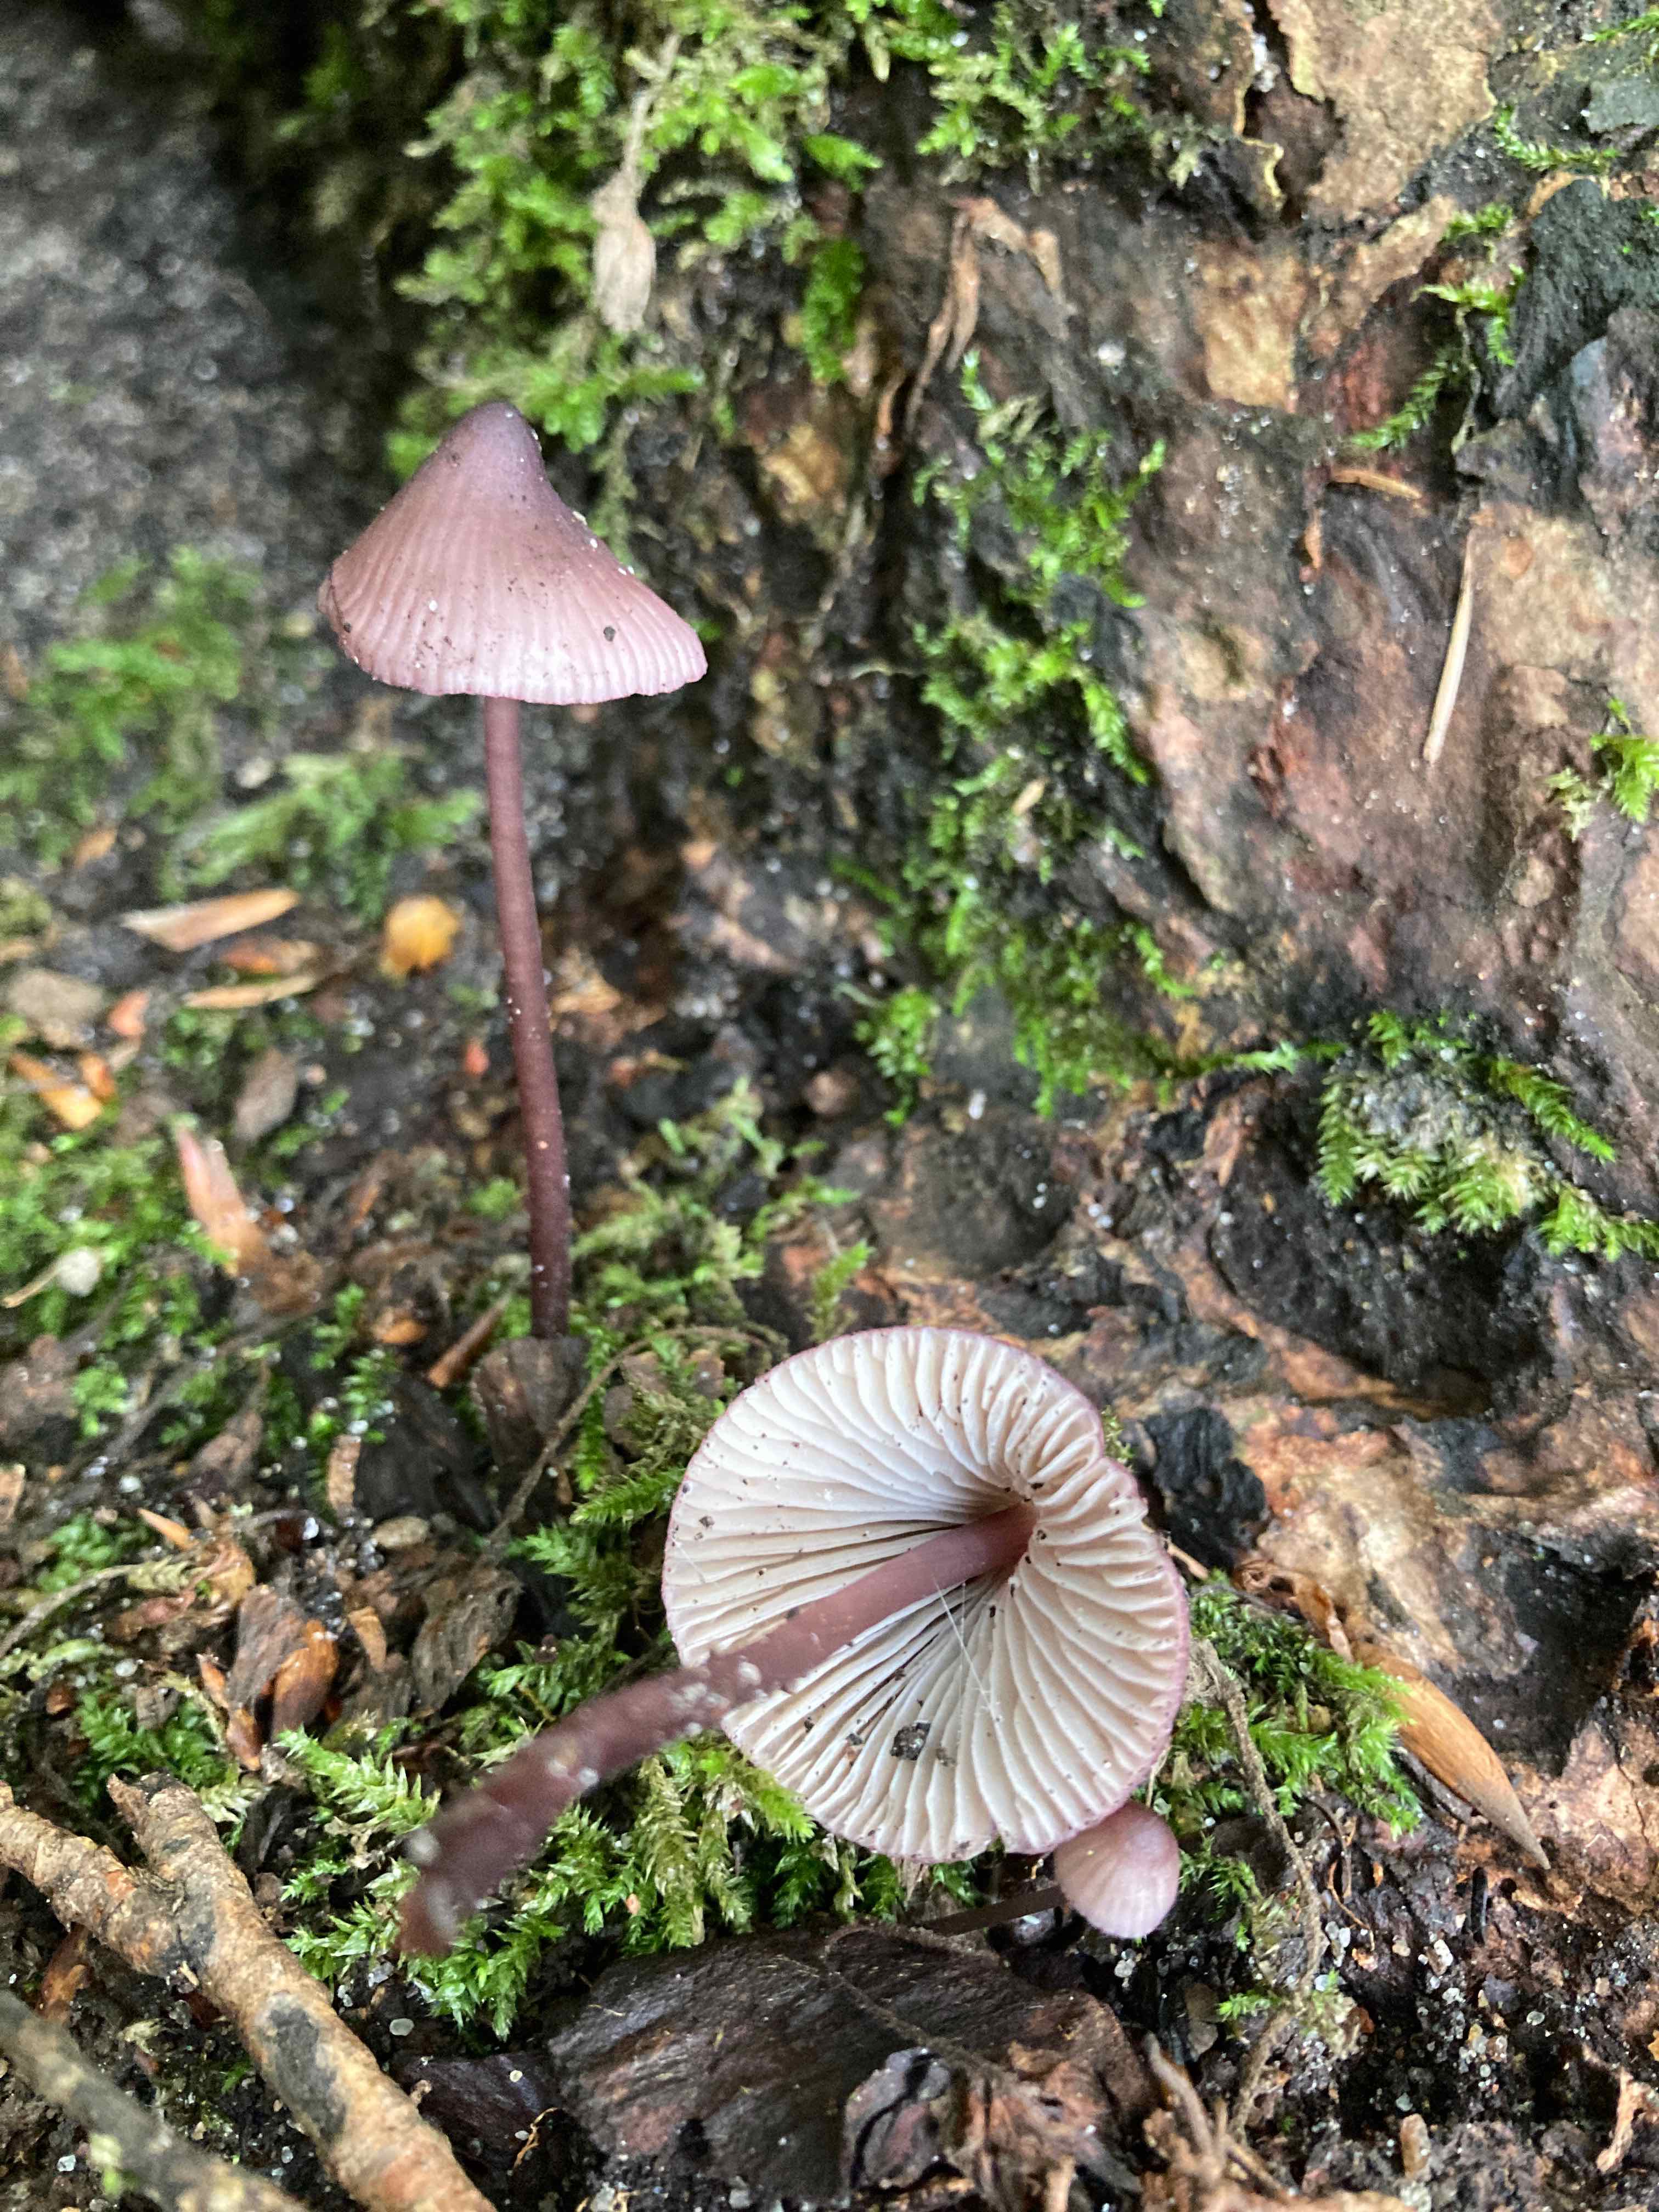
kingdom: Fungi
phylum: Basidiomycota
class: Agaricomycetes
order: Agaricales
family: Mycenaceae
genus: Mycena
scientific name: Mycena purpureofusca
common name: purpur-huesvamp
